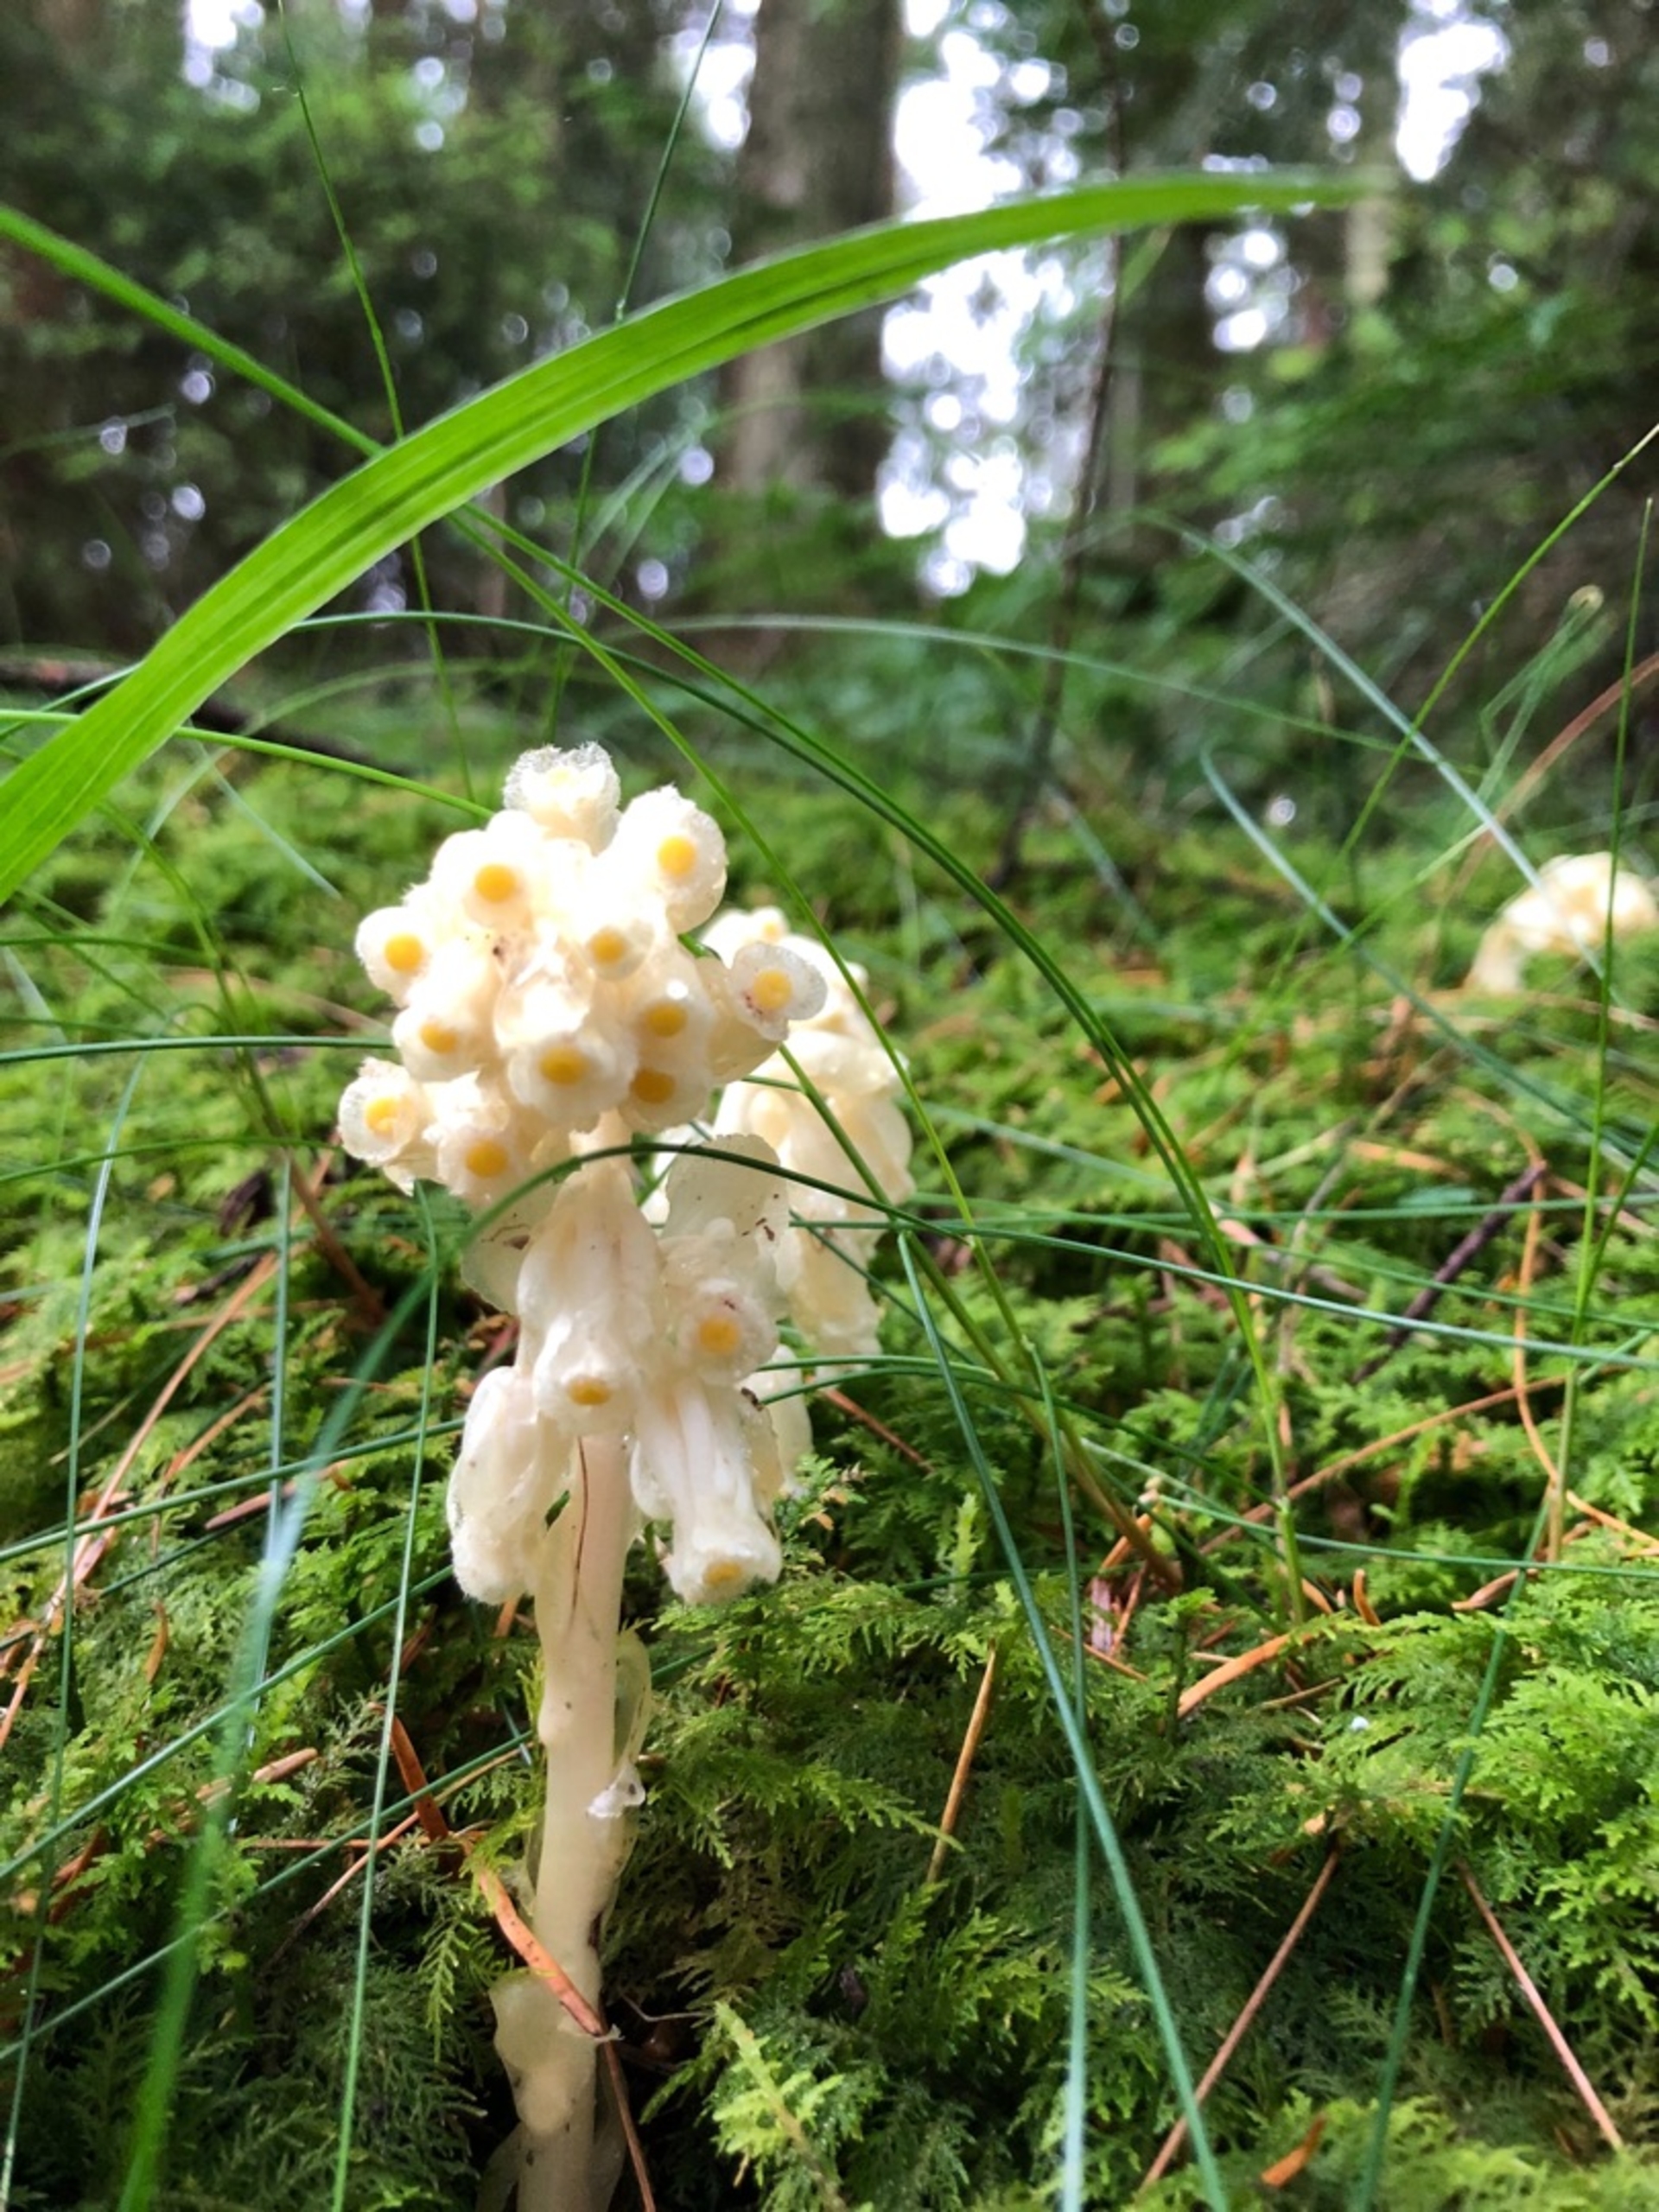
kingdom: Plantae
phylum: Tracheophyta
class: Magnoliopsida
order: Ericales
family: Ericaceae
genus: Hypopitys
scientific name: Hypopitys monotropa
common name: Snylterod
